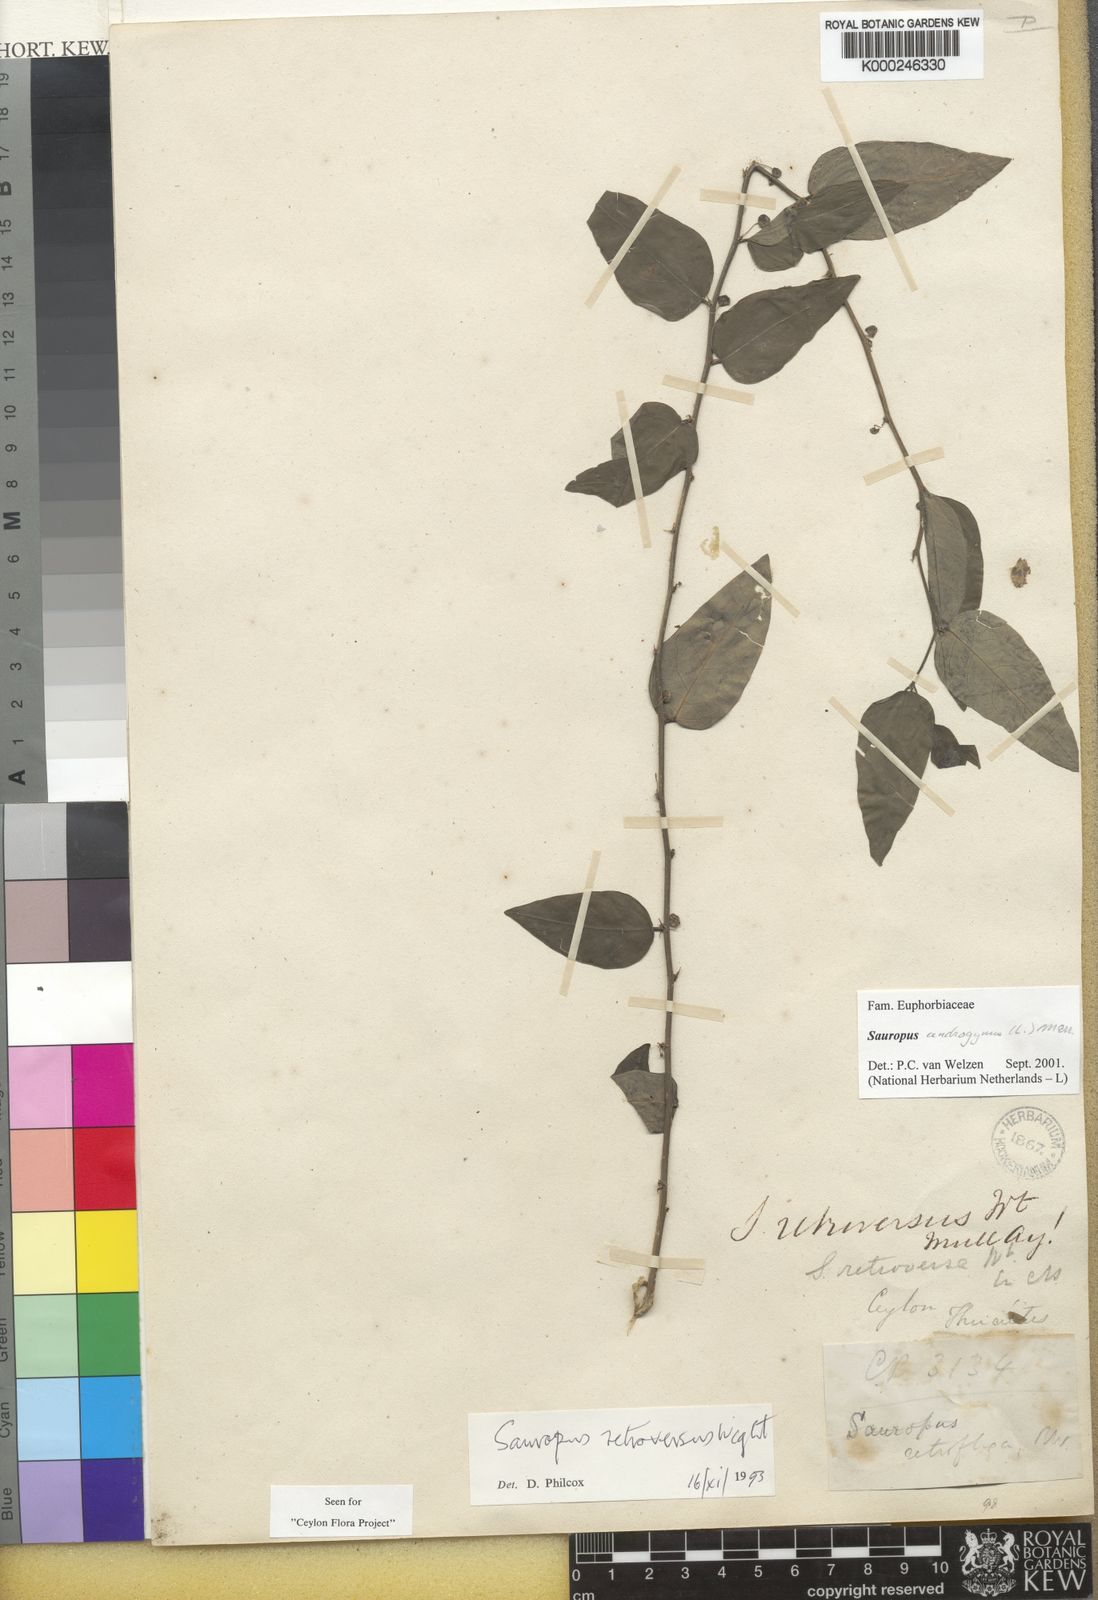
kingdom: Plantae
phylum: Tracheophyta
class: Magnoliopsida
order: Malpighiales
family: Phyllanthaceae
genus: Breynia
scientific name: Breynia androgyna
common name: Star gooseberry
